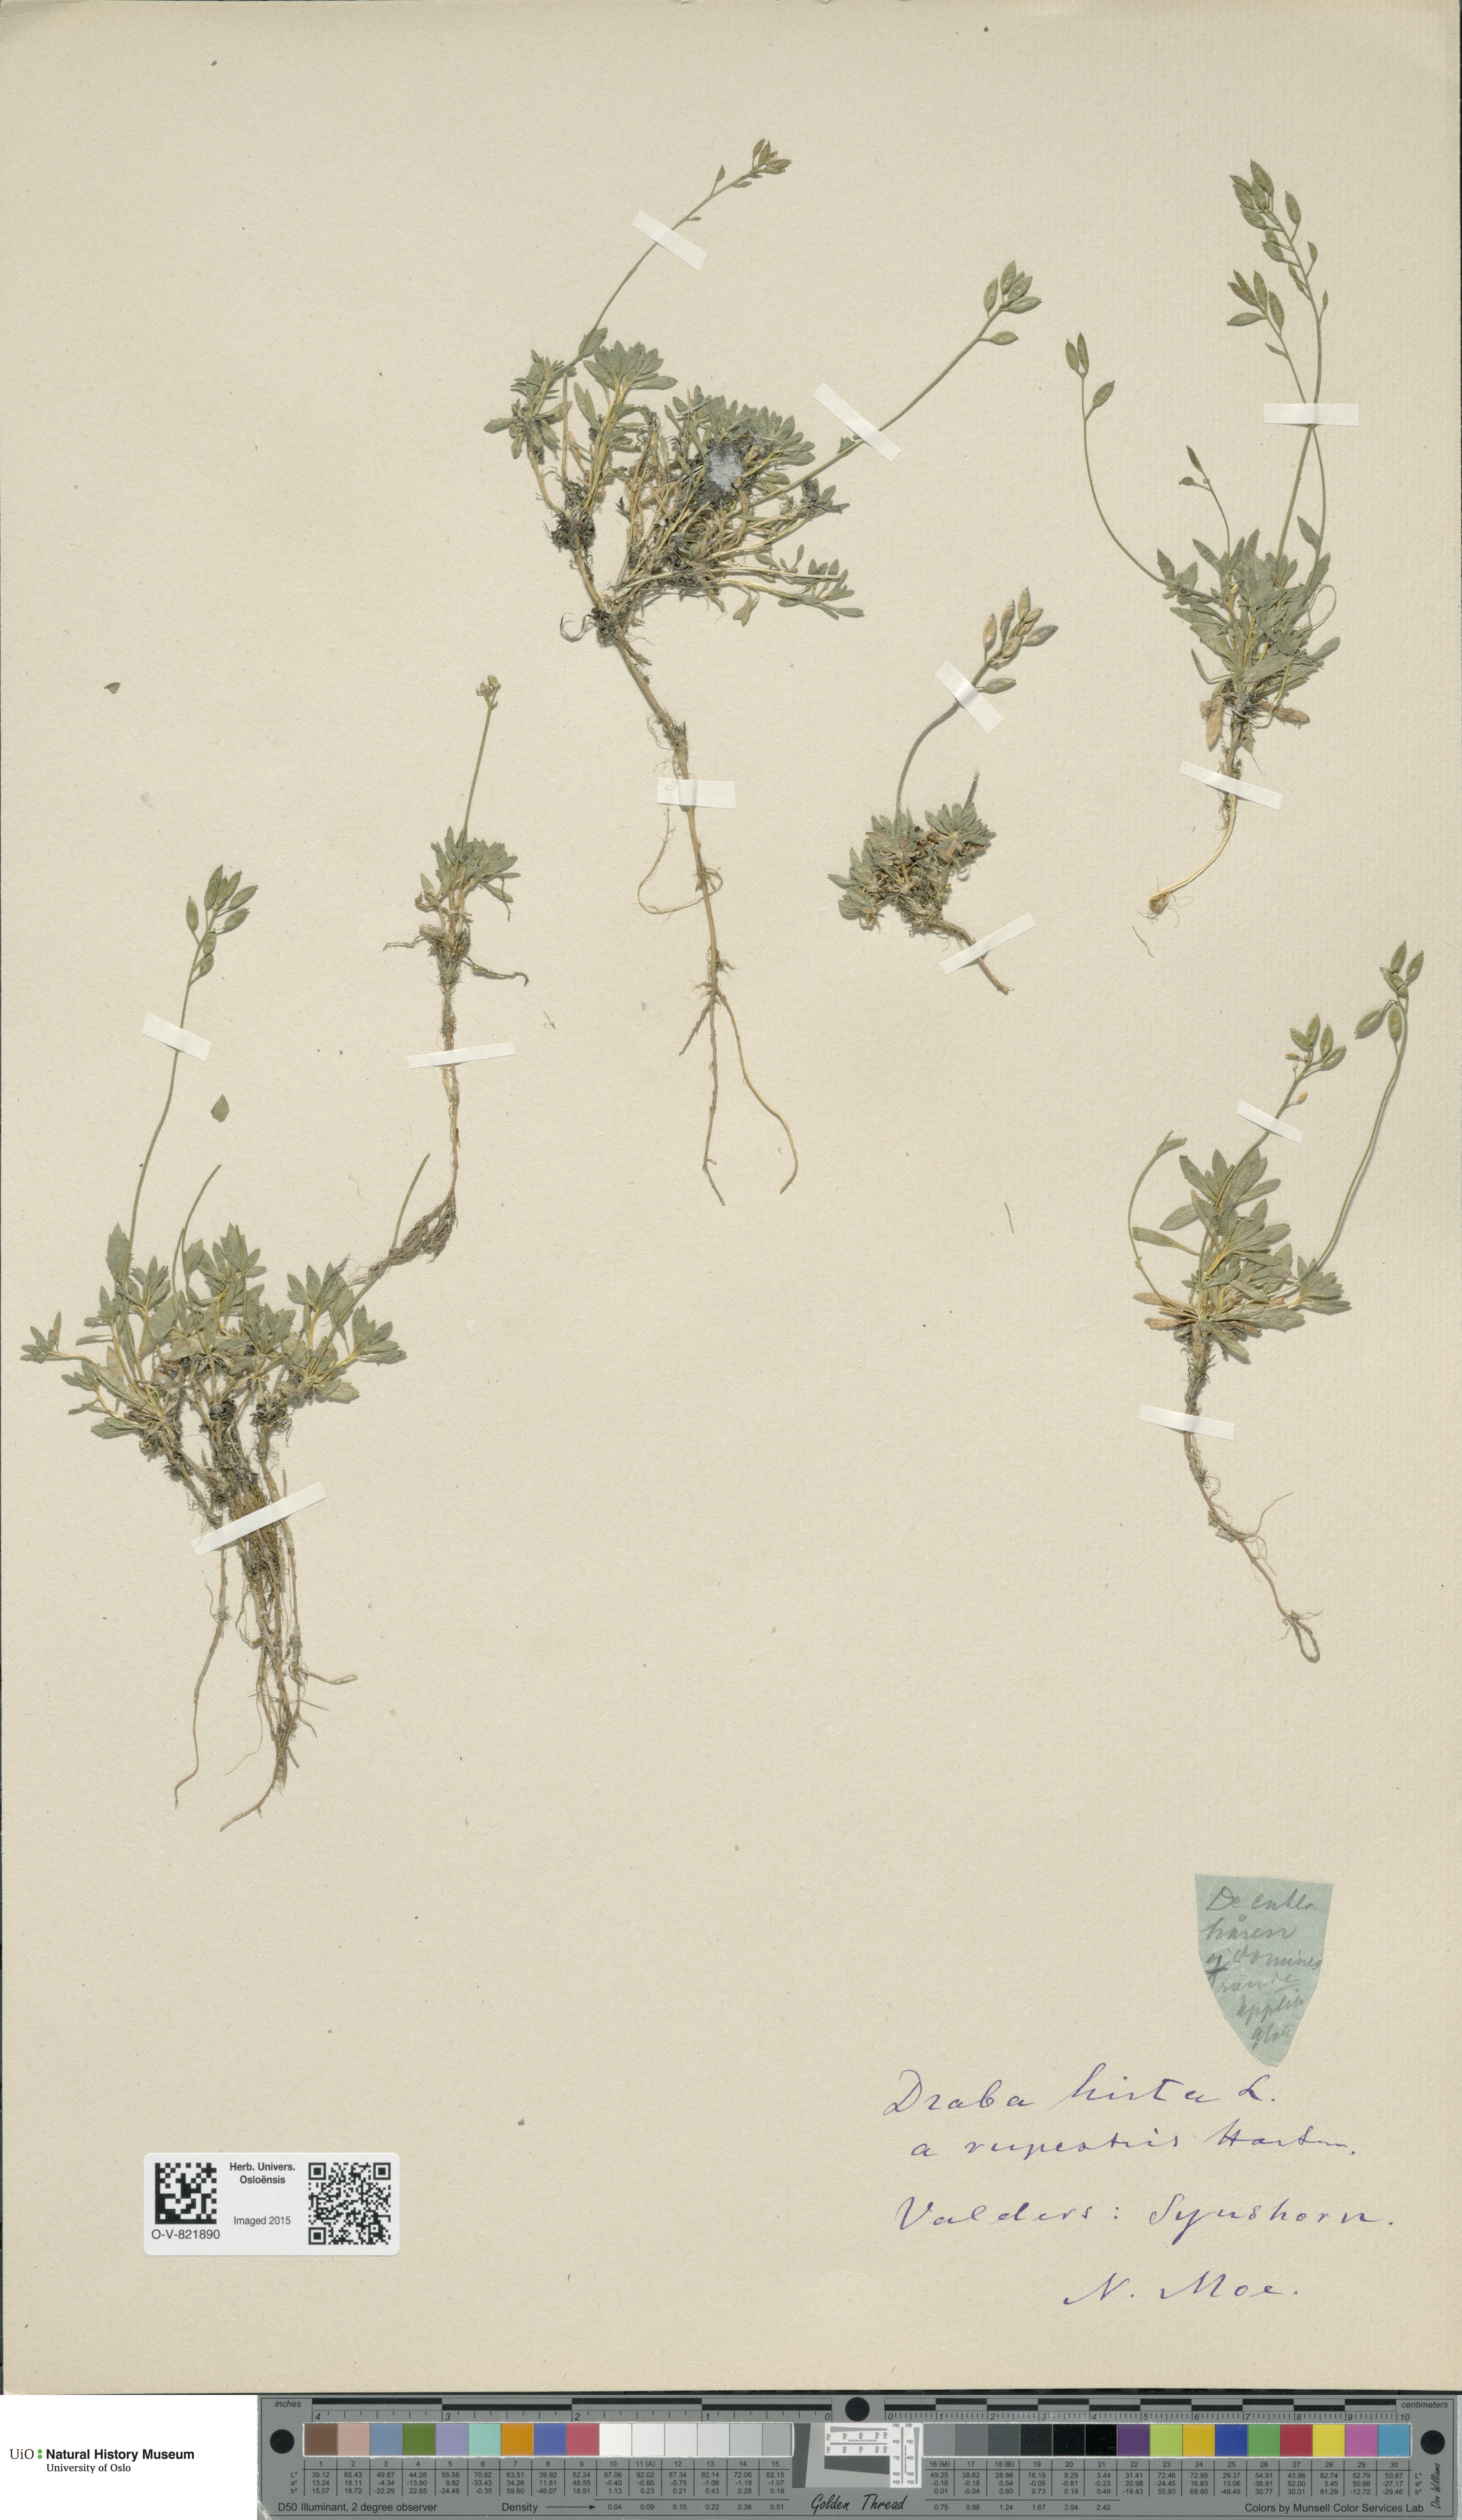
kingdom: Plantae
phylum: Tracheophyta
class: Magnoliopsida
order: Brassicales
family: Brassicaceae
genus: Draba
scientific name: Draba norvegica
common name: Rock whitlowgrass
